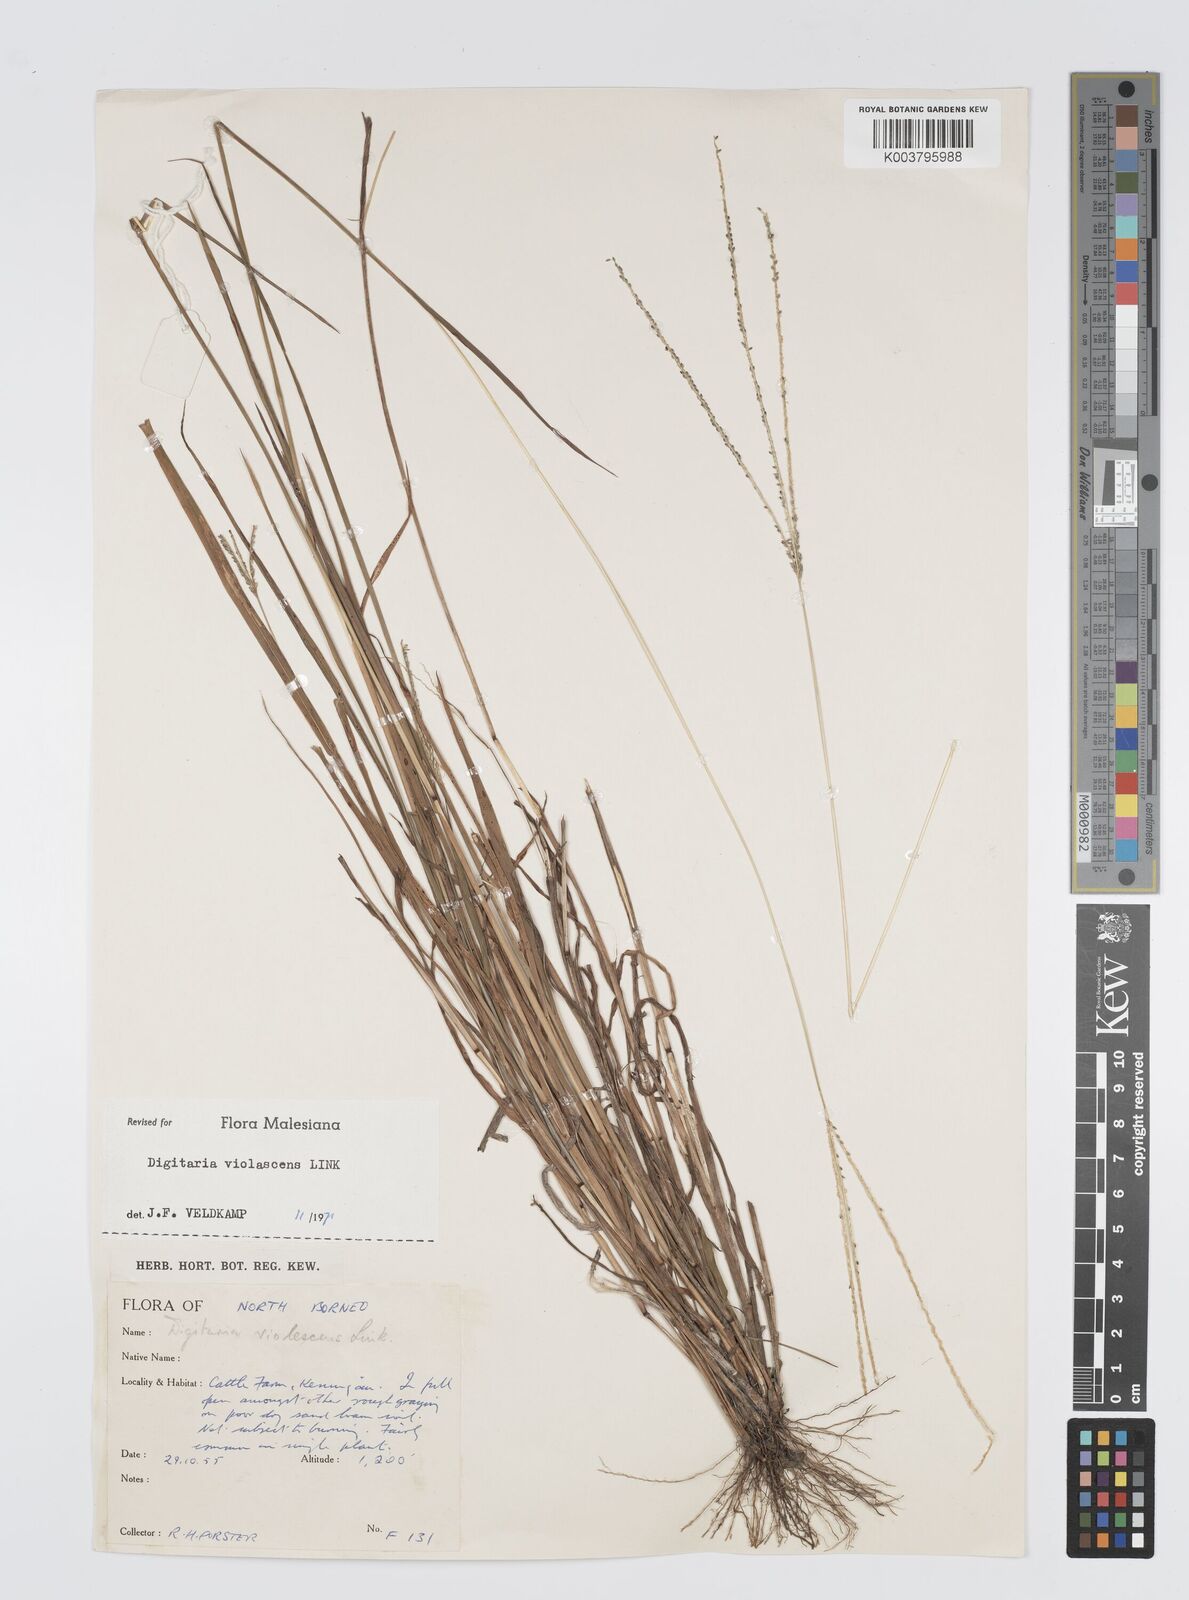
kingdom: Plantae
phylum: Tracheophyta
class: Liliopsida
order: Poales
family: Poaceae
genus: Digitaria
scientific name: Digitaria violascens
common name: Violet crabgrass
